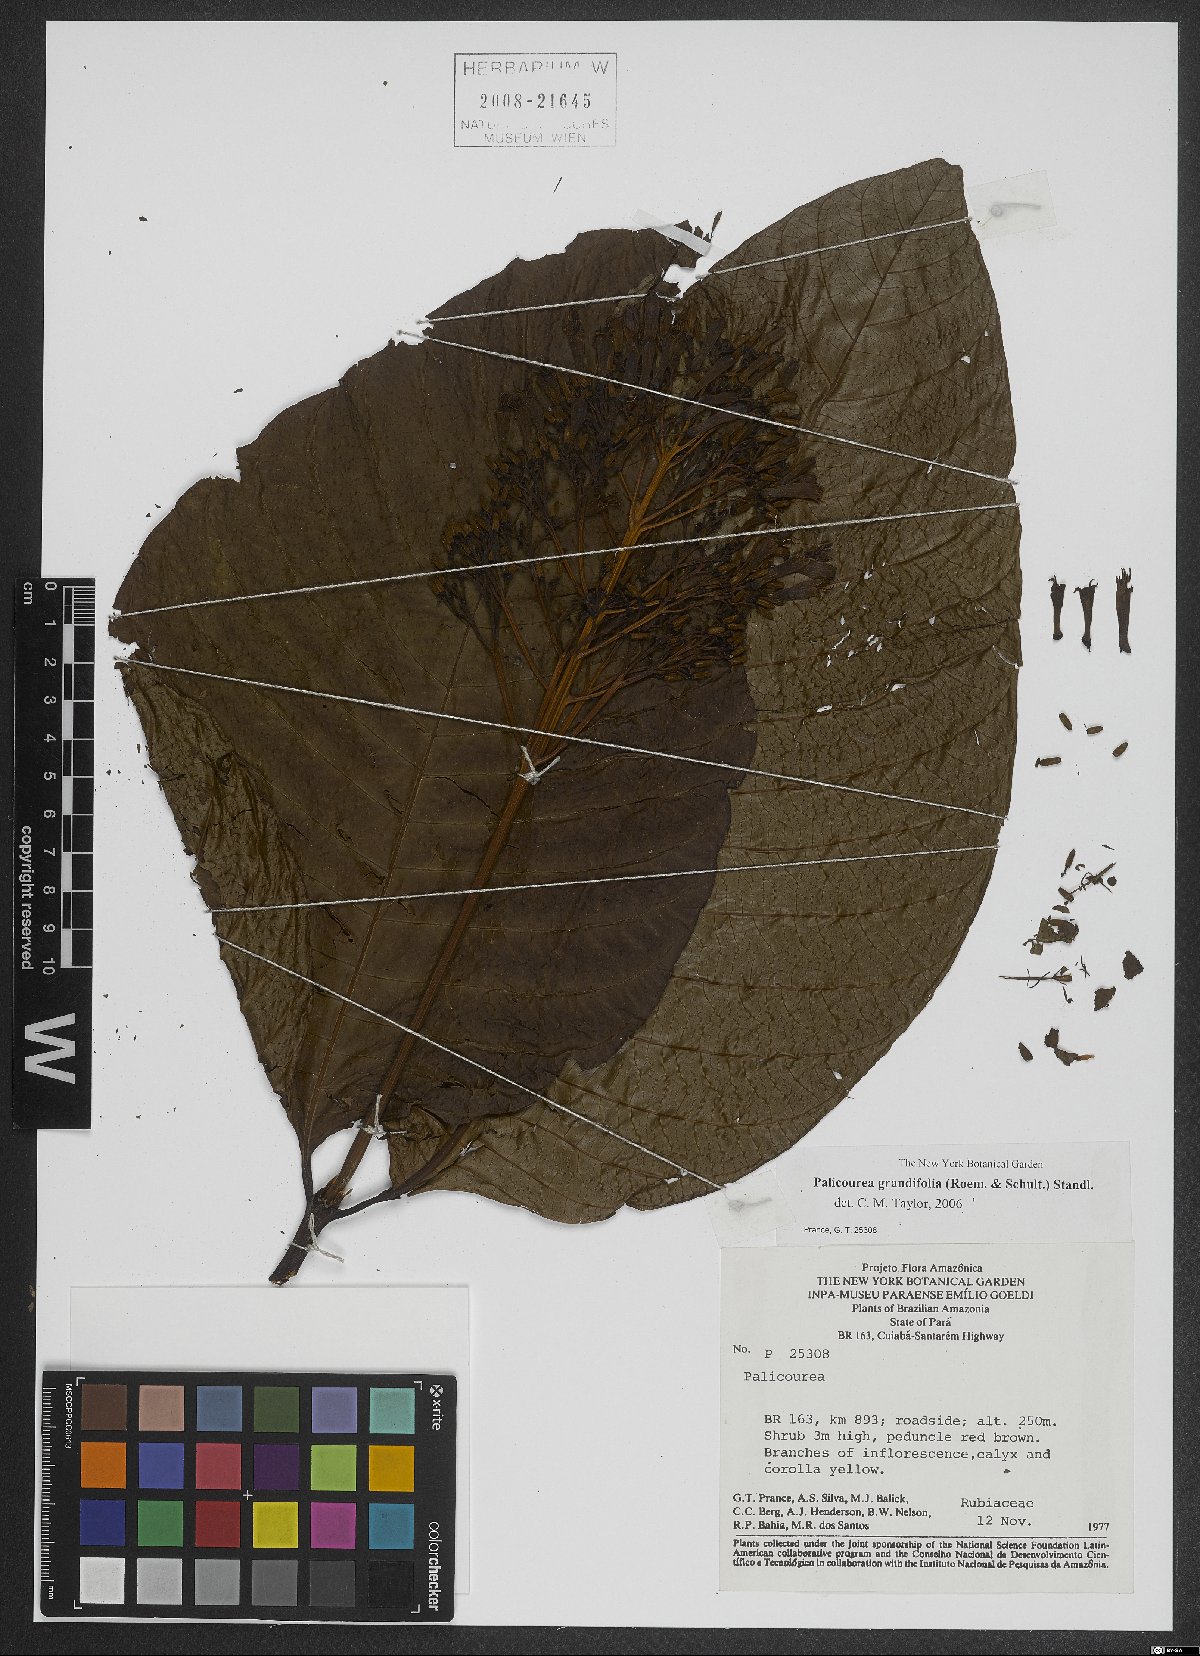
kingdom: Plantae
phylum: Tracheophyta
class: Magnoliopsida
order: Gentianales
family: Rubiaceae
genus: Palicourea
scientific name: Palicourea grandifolia
